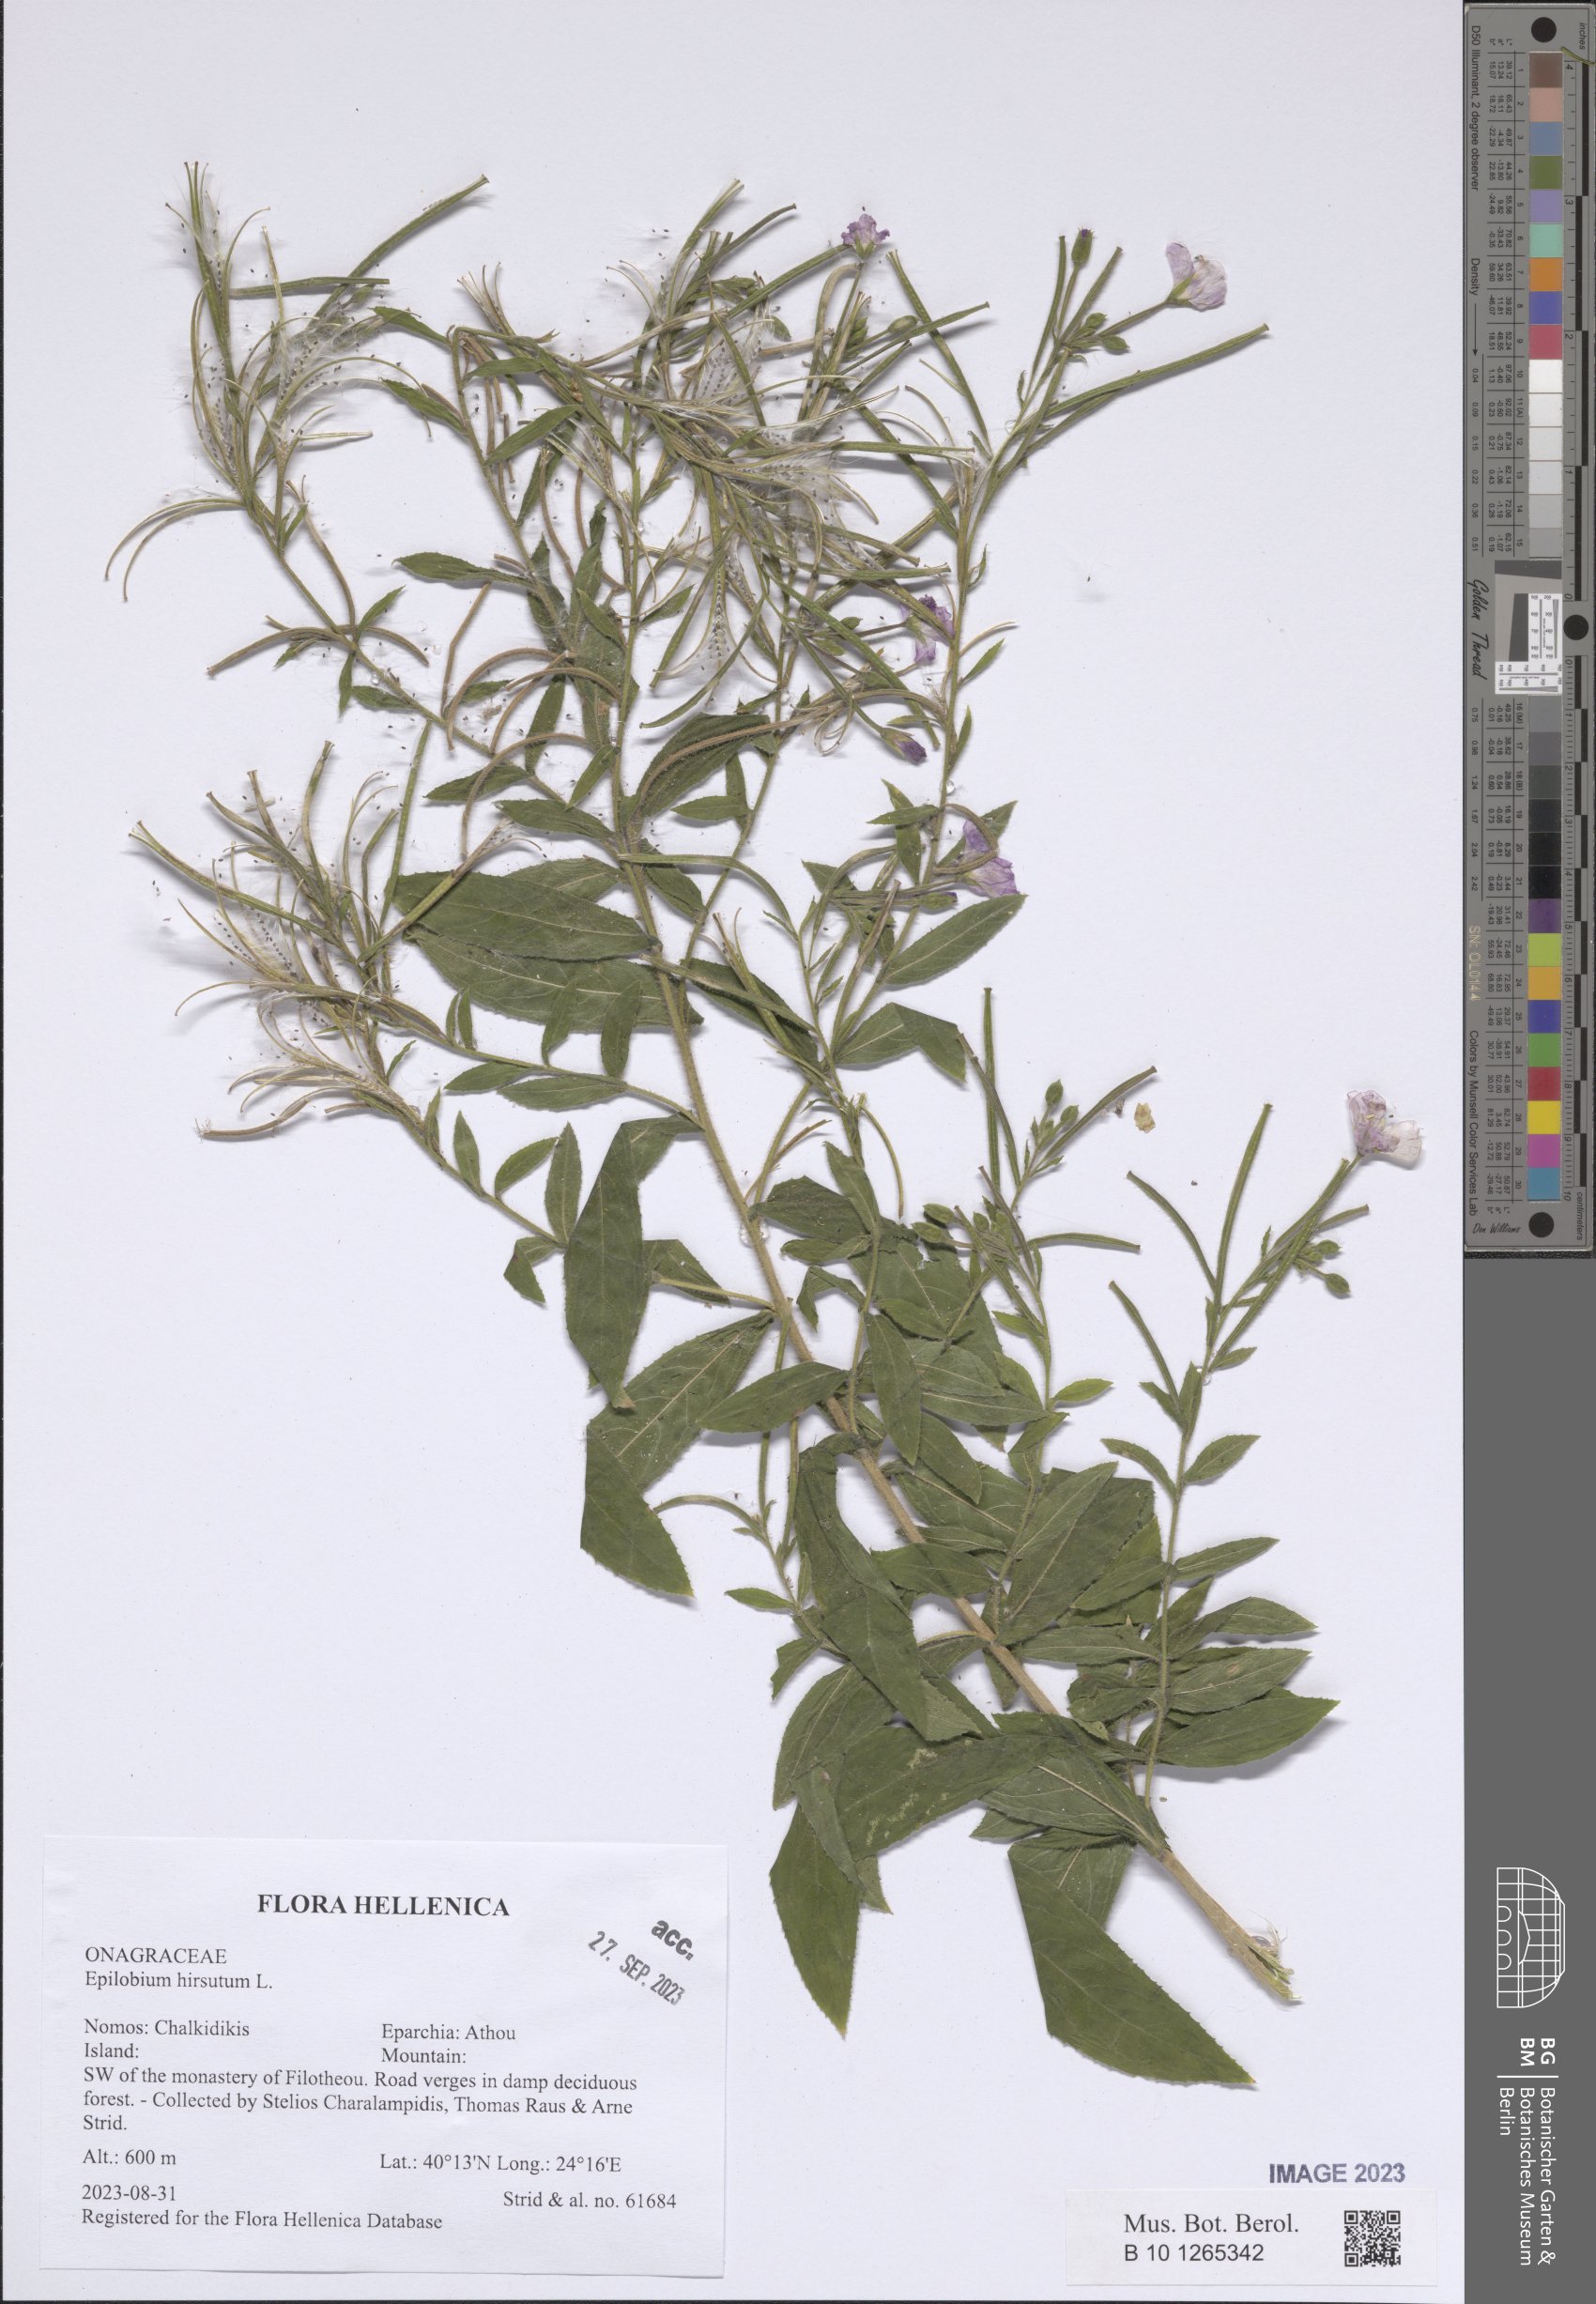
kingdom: Plantae
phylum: Tracheophyta
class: Magnoliopsida
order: Myrtales
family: Onagraceae
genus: Epilobium
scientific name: Epilobium hirsutum
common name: Great willowherb
